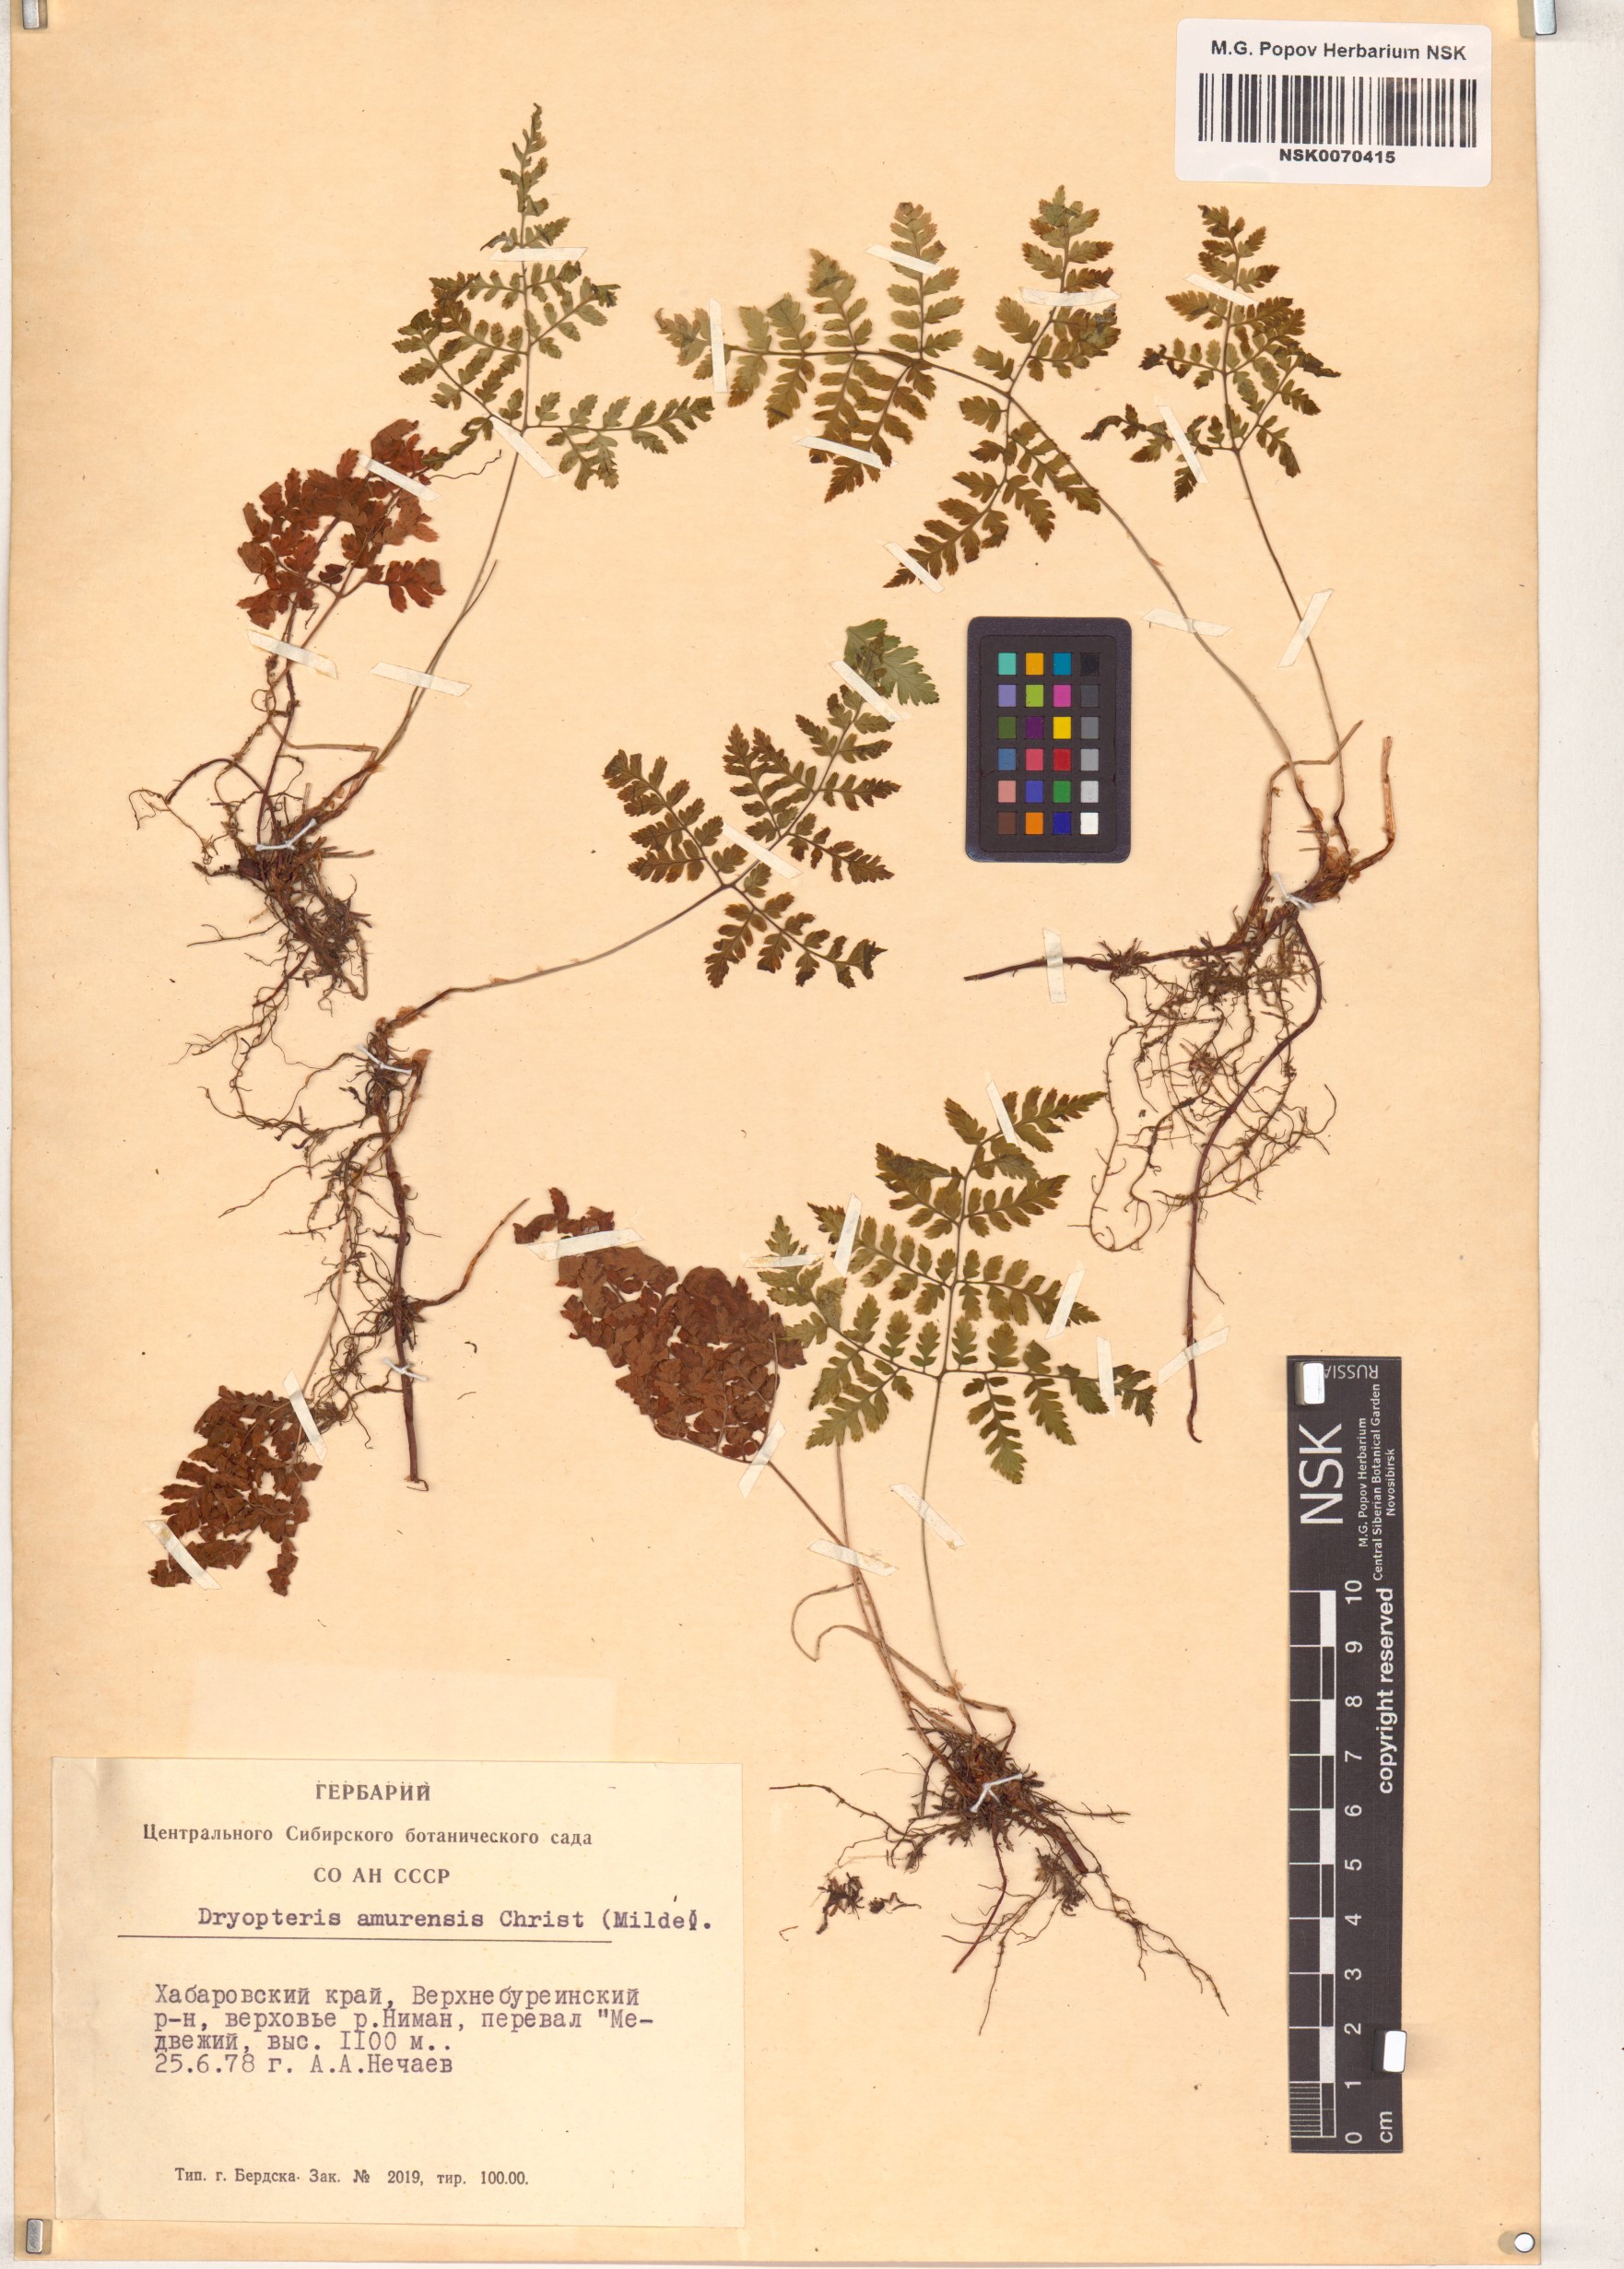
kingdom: Plantae
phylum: Tracheophyta
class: Polypodiopsida
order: Polypodiales
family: Dryopteridaceae
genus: Dryopteris
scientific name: Dryopteris amurensis
